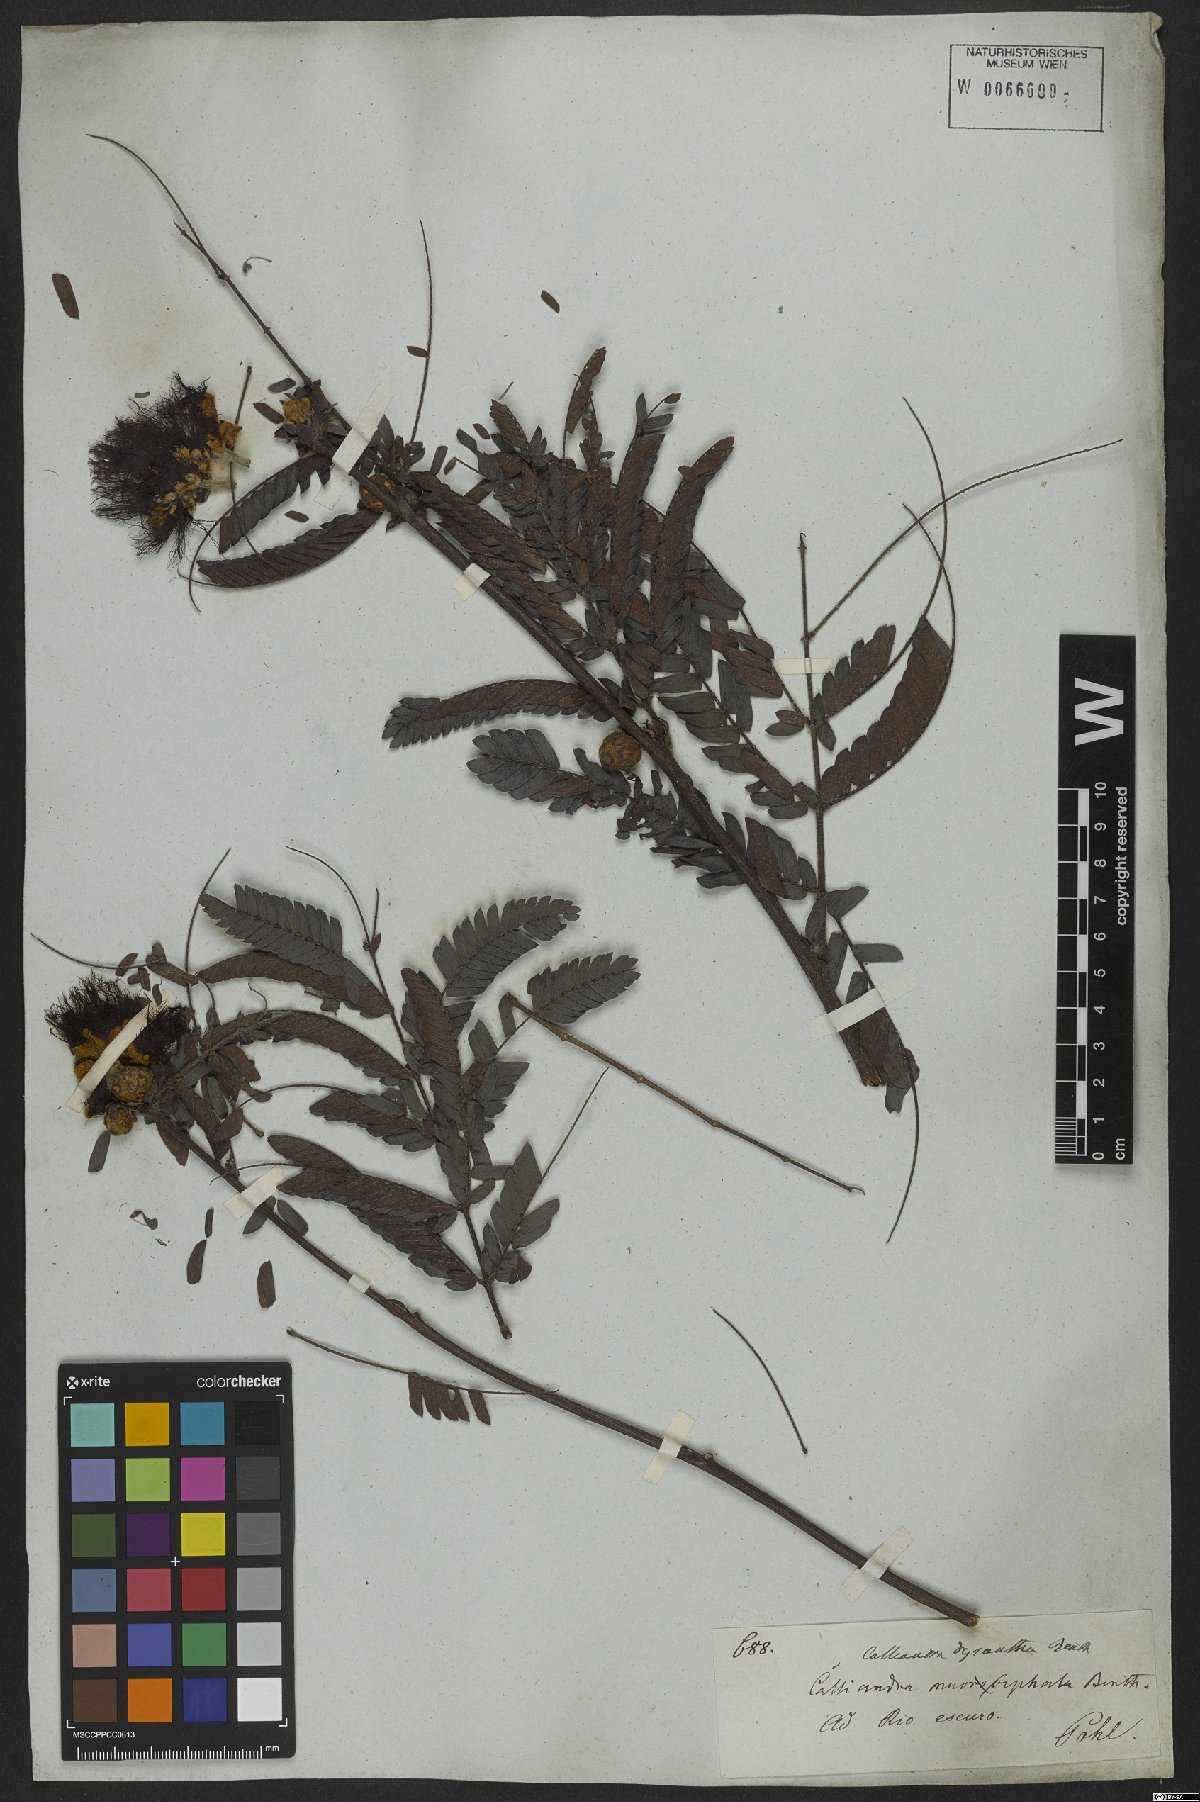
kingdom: Plantae
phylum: Tracheophyta
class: Magnoliopsida
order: Fabales
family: Fabaceae
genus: Calliandra
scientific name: Calliandra dysantha
